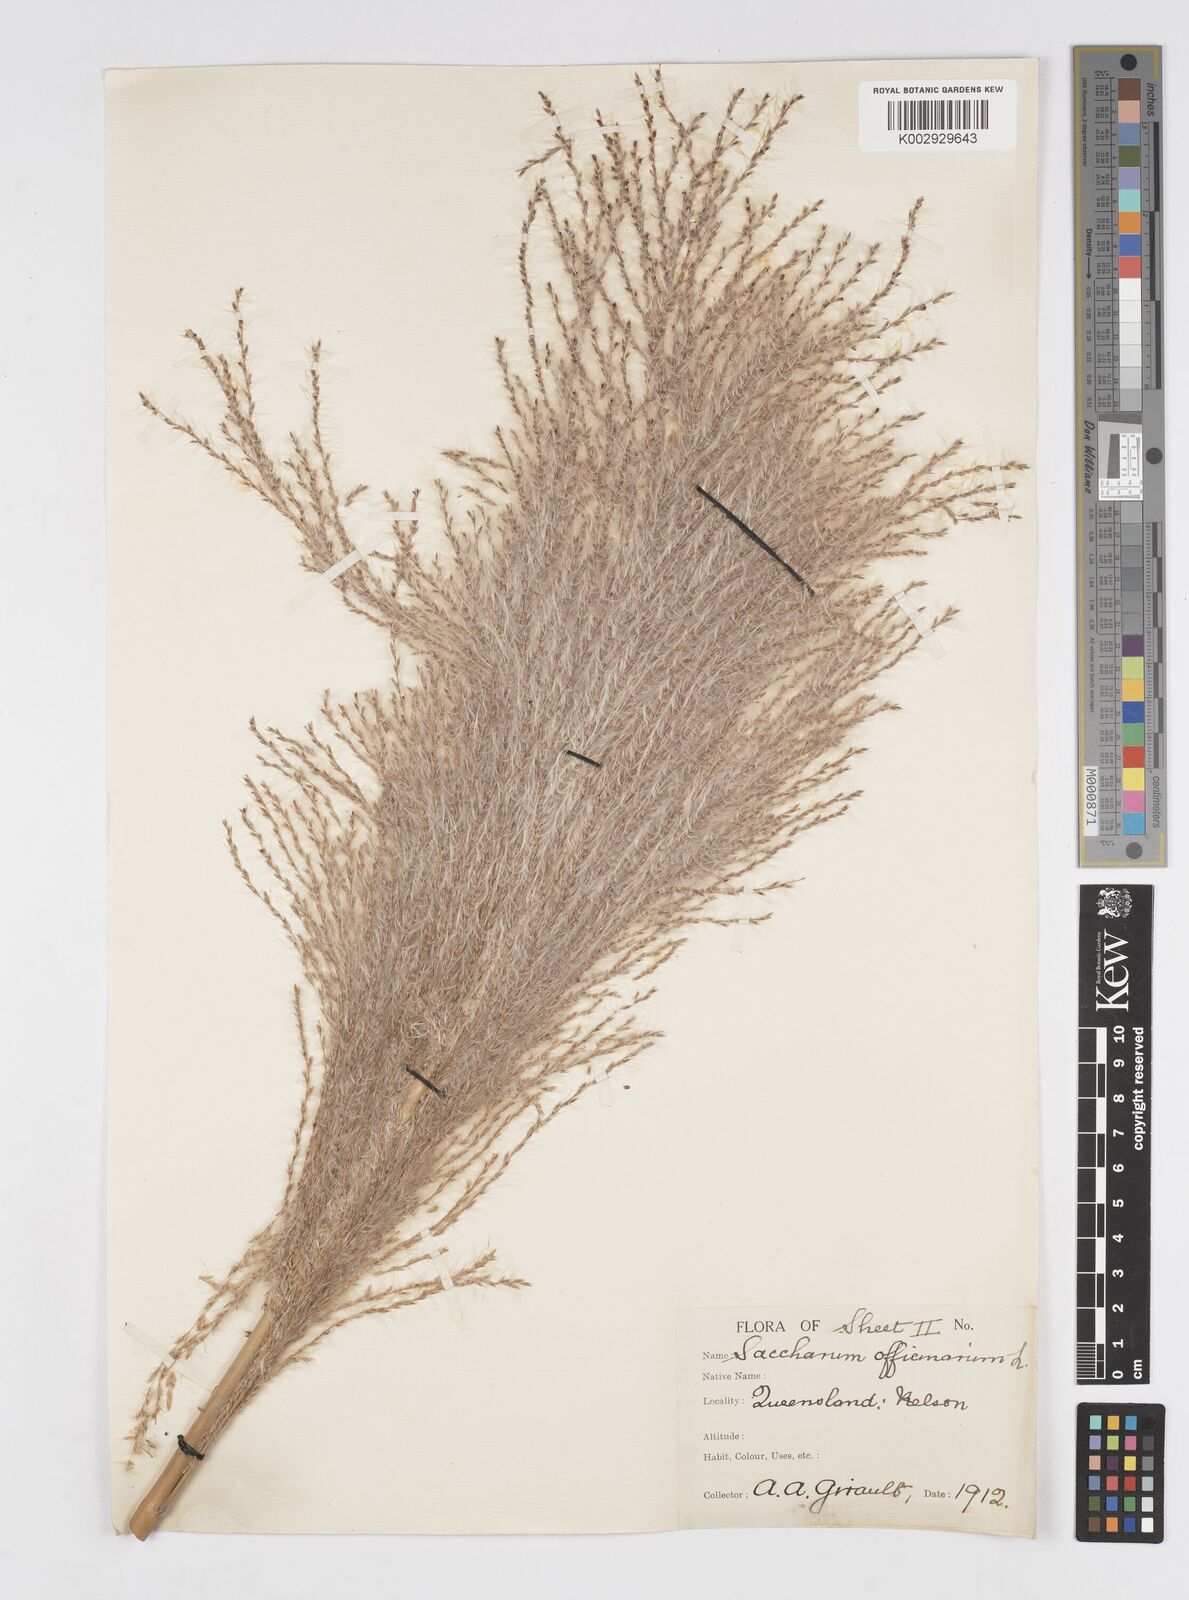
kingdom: Plantae
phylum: Tracheophyta
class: Liliopsida
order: Poales
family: Poaceae
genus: Saccharum
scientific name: Saccharum officinarum
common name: Sugarcane
